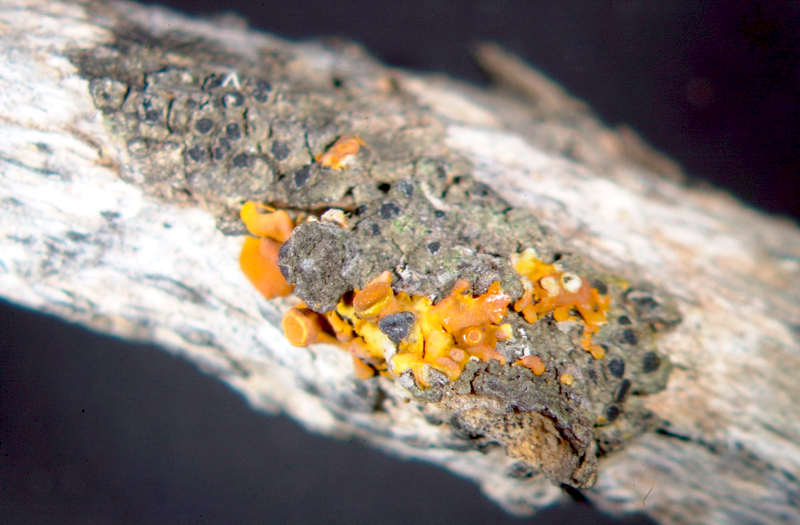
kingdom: Fungi
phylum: Ascomycota
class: Lecanoromycetes
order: Caliciales
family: Physciaceae
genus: Rinodina
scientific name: Rinodina australiensis
